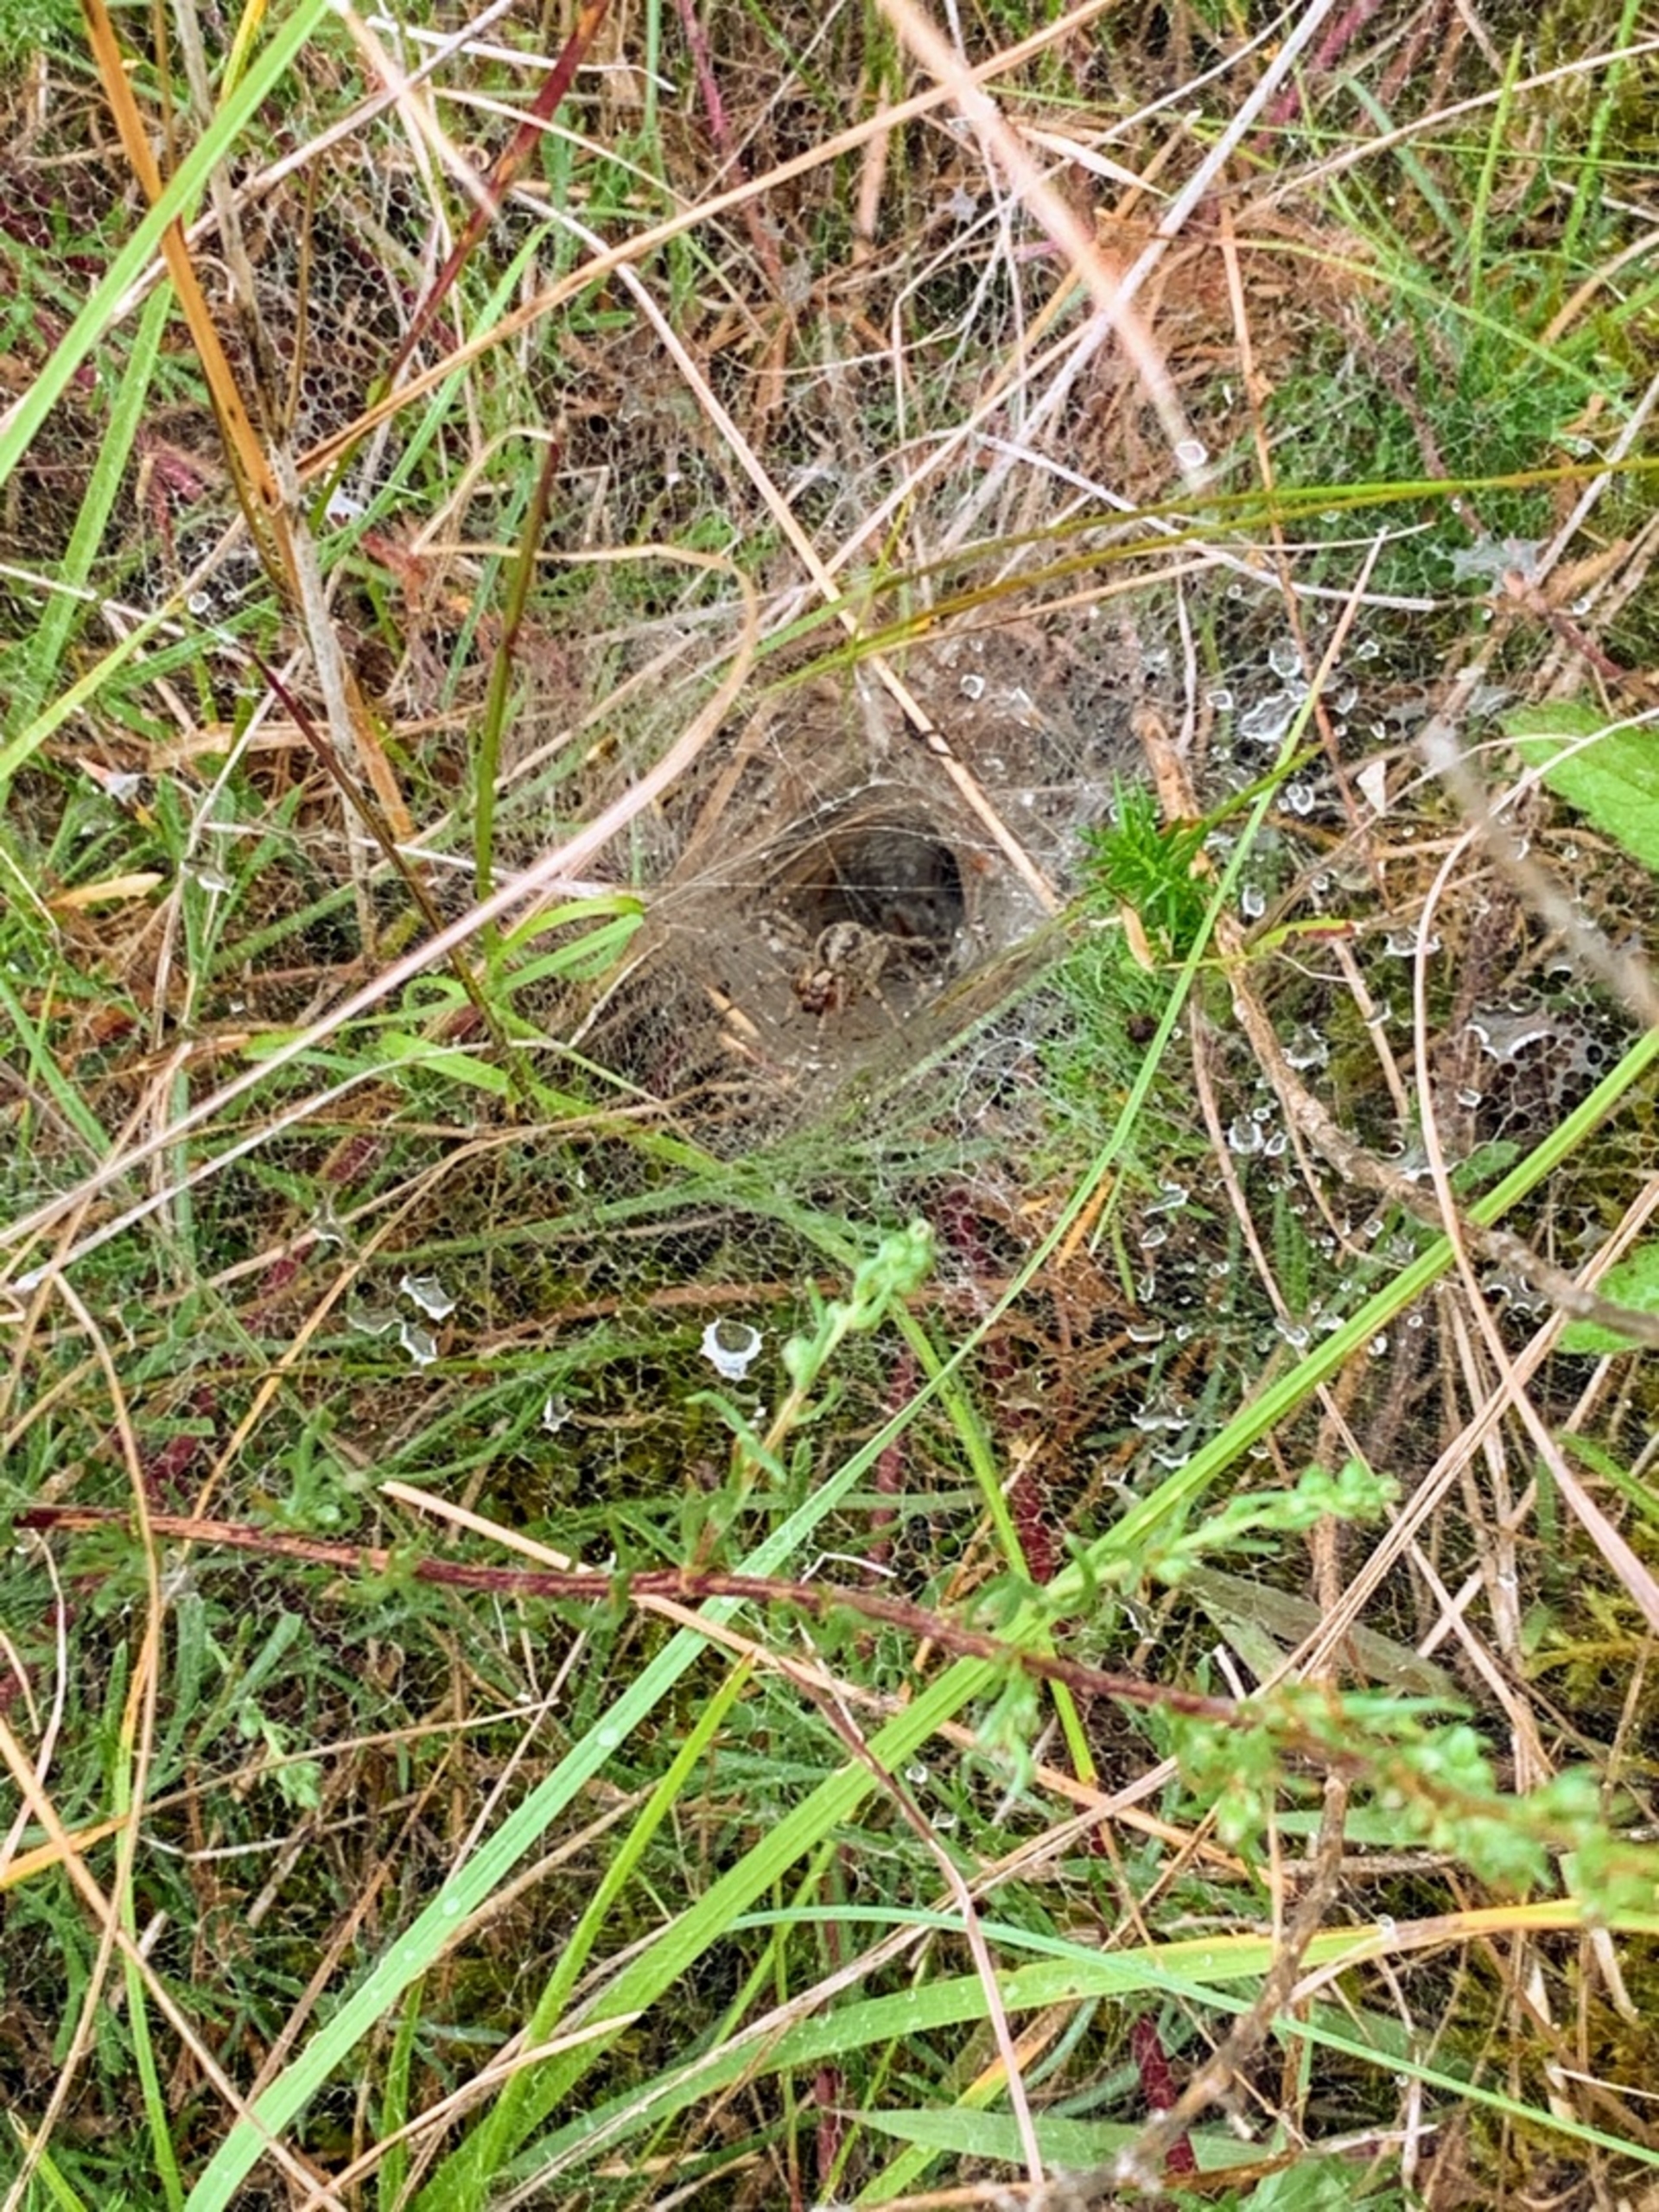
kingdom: Animalia
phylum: Arthropoda
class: Arachnida
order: Araneae
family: Agelenidae
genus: Agelena
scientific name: Agelena labyrinthica
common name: Labyrintedderkop
